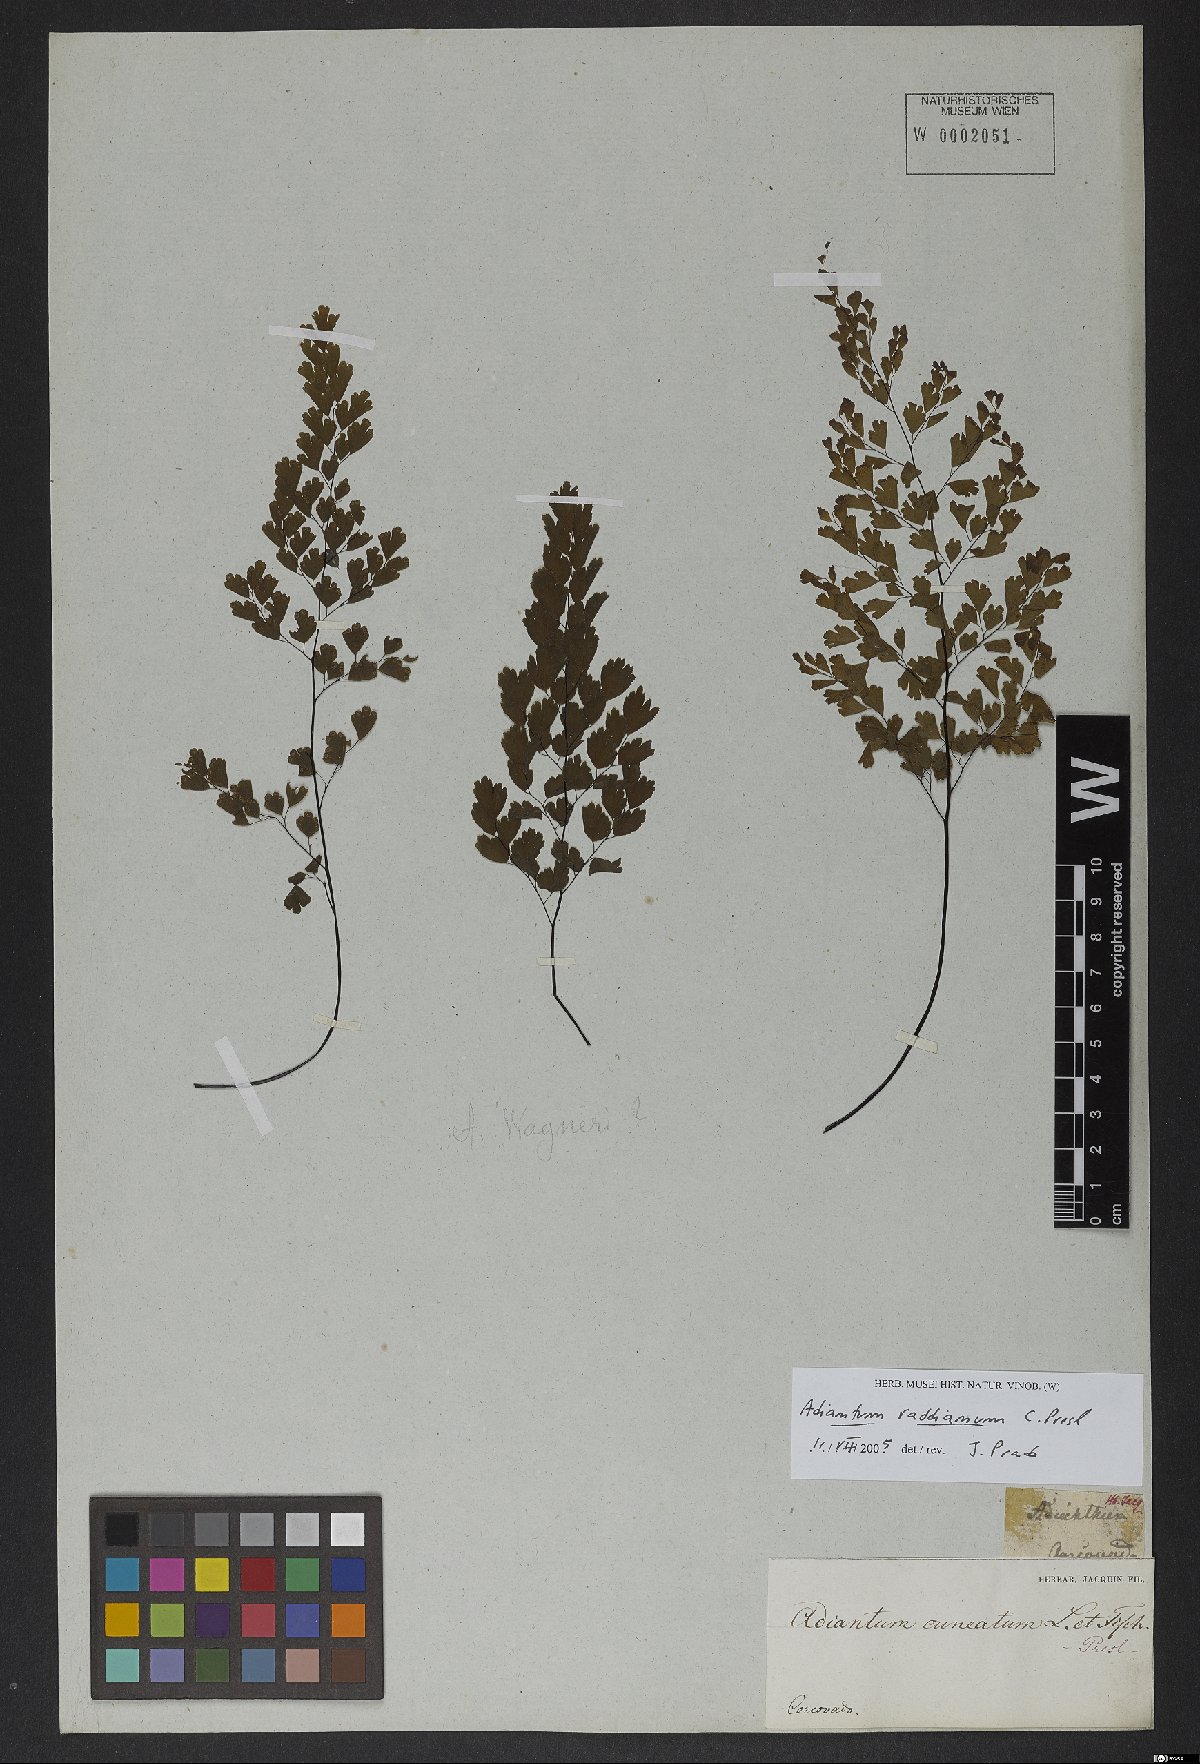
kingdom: Plantae
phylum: Tracheophyta
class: Polypodiopsida
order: Polypodiales
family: Pteridaceae
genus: Adiantum
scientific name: Adiantum raddianum
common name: Delta maidenhair fern
